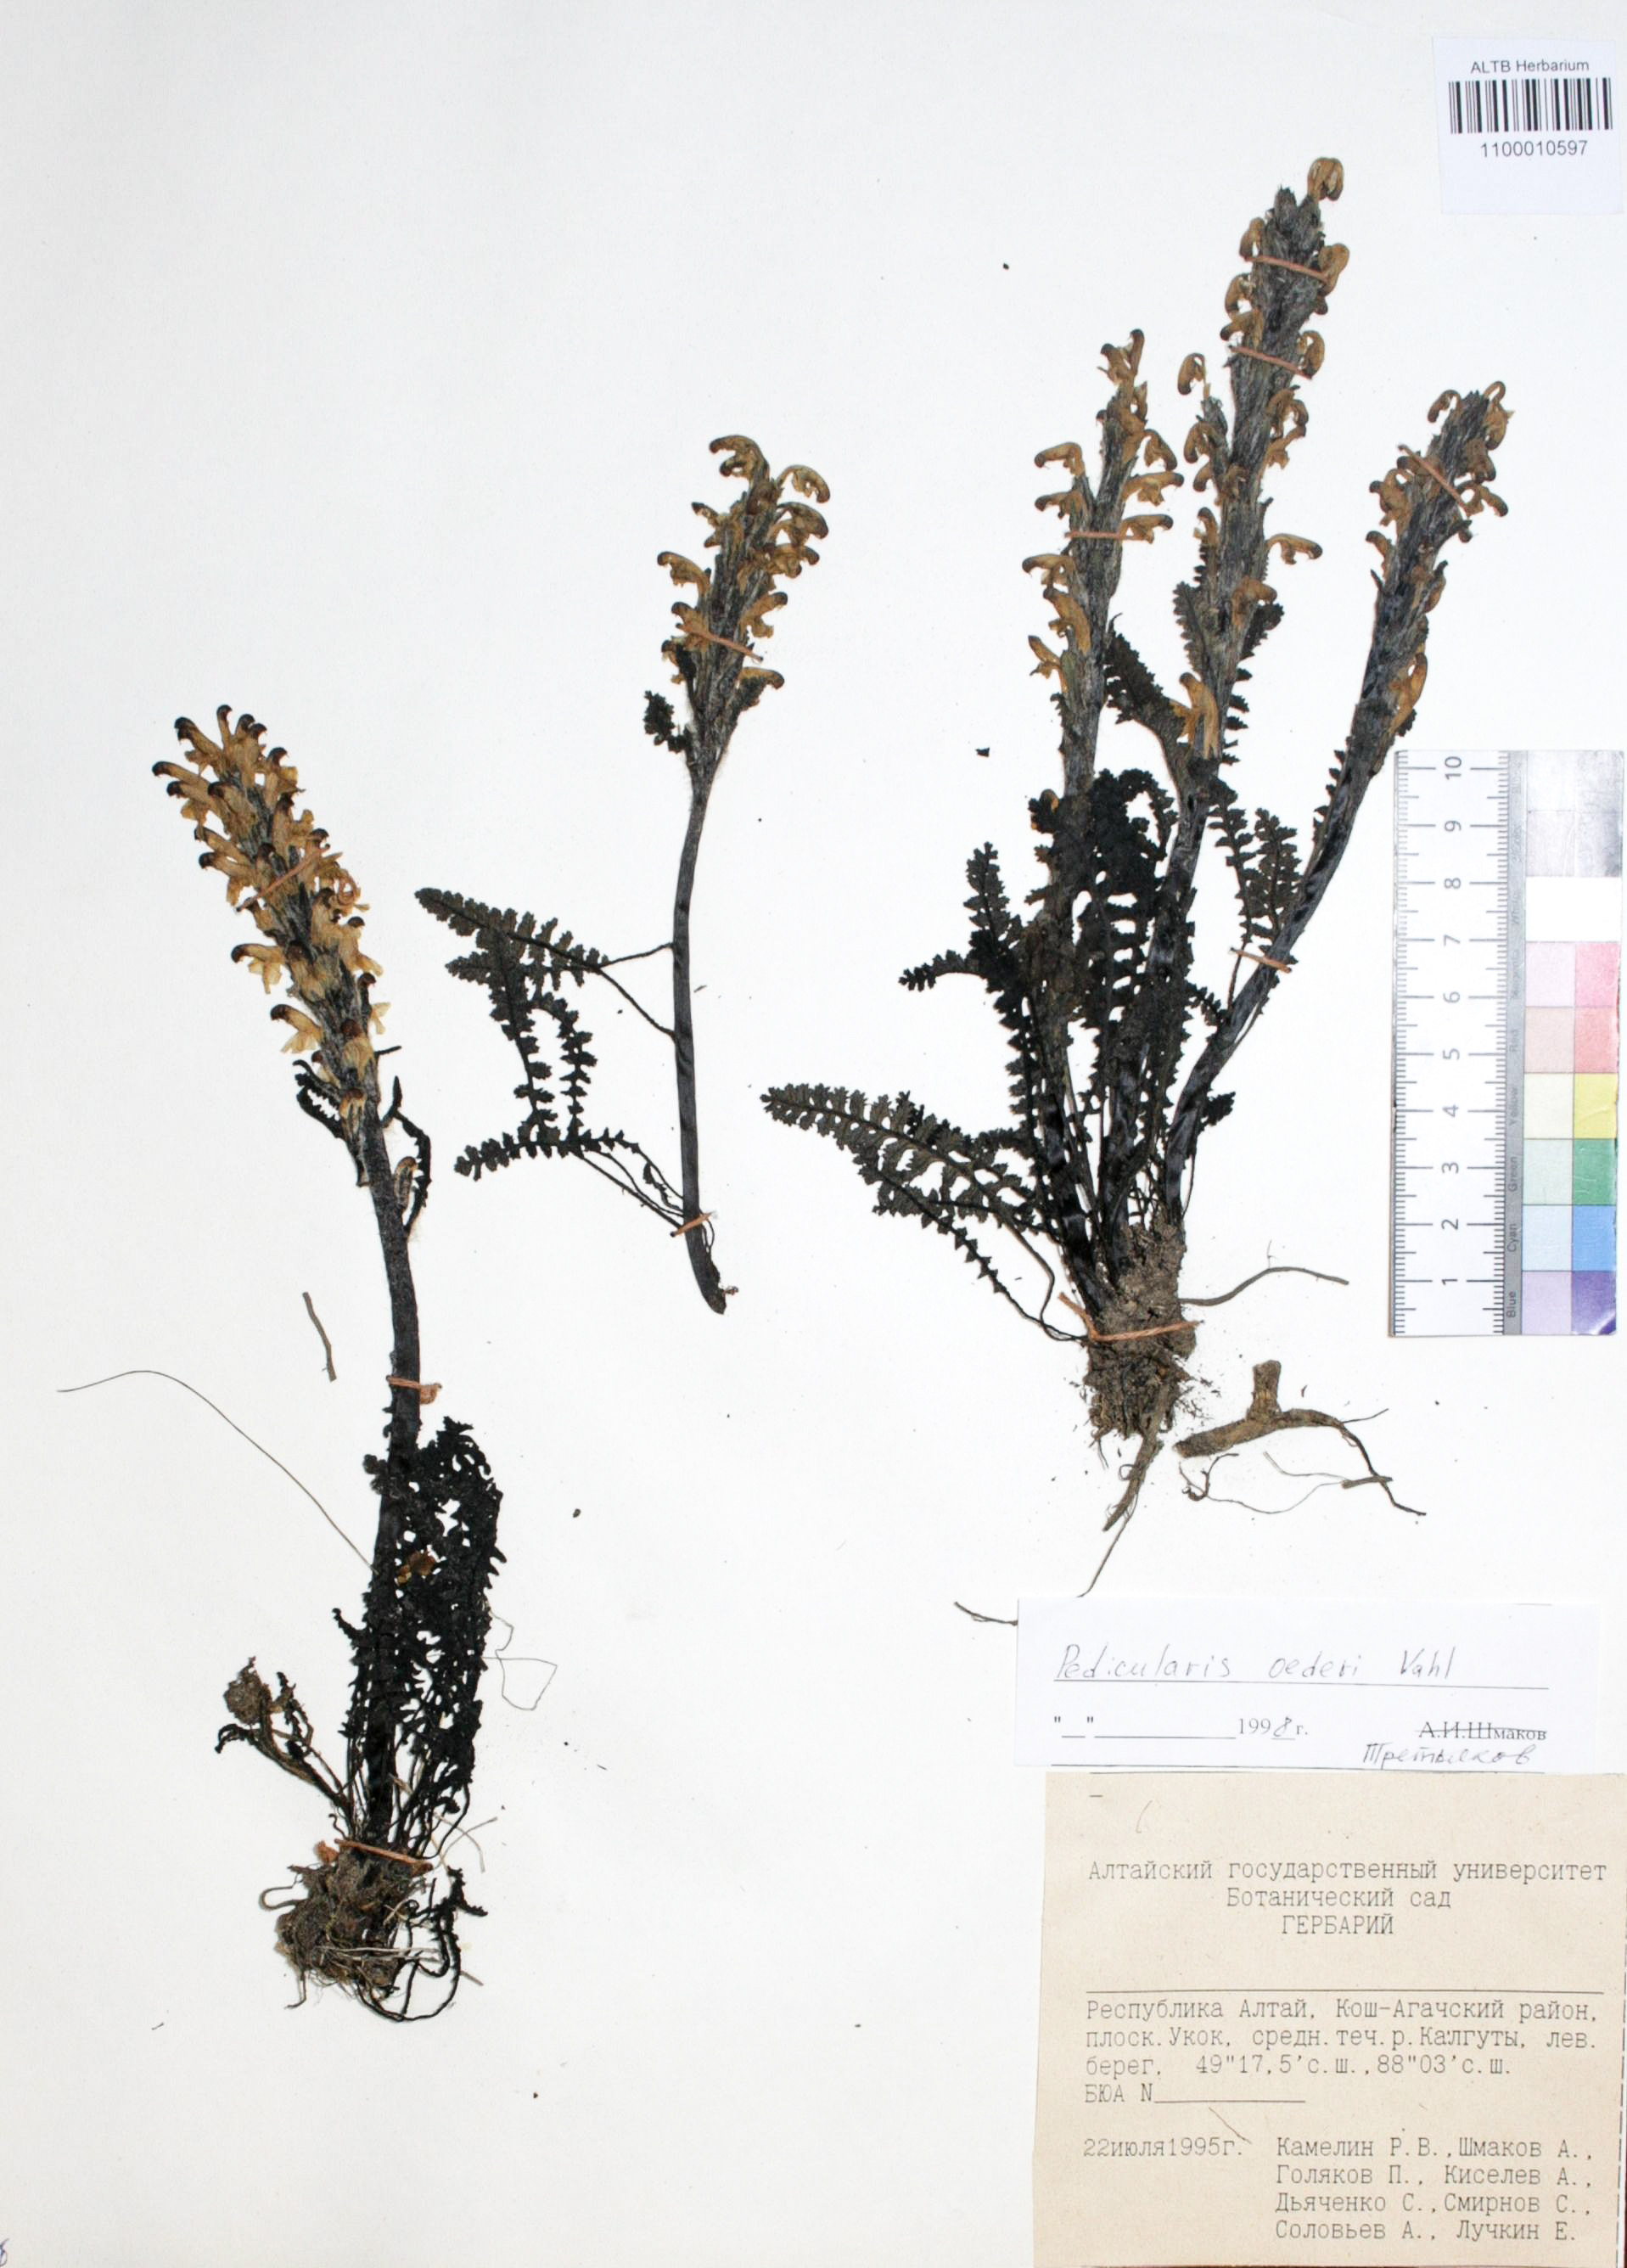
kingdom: Plantae
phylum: Tracheophyta
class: Magnoliopsida
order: Caryophyllales
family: Caryophyllaceae
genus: Silene
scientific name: Silene graminifolia
